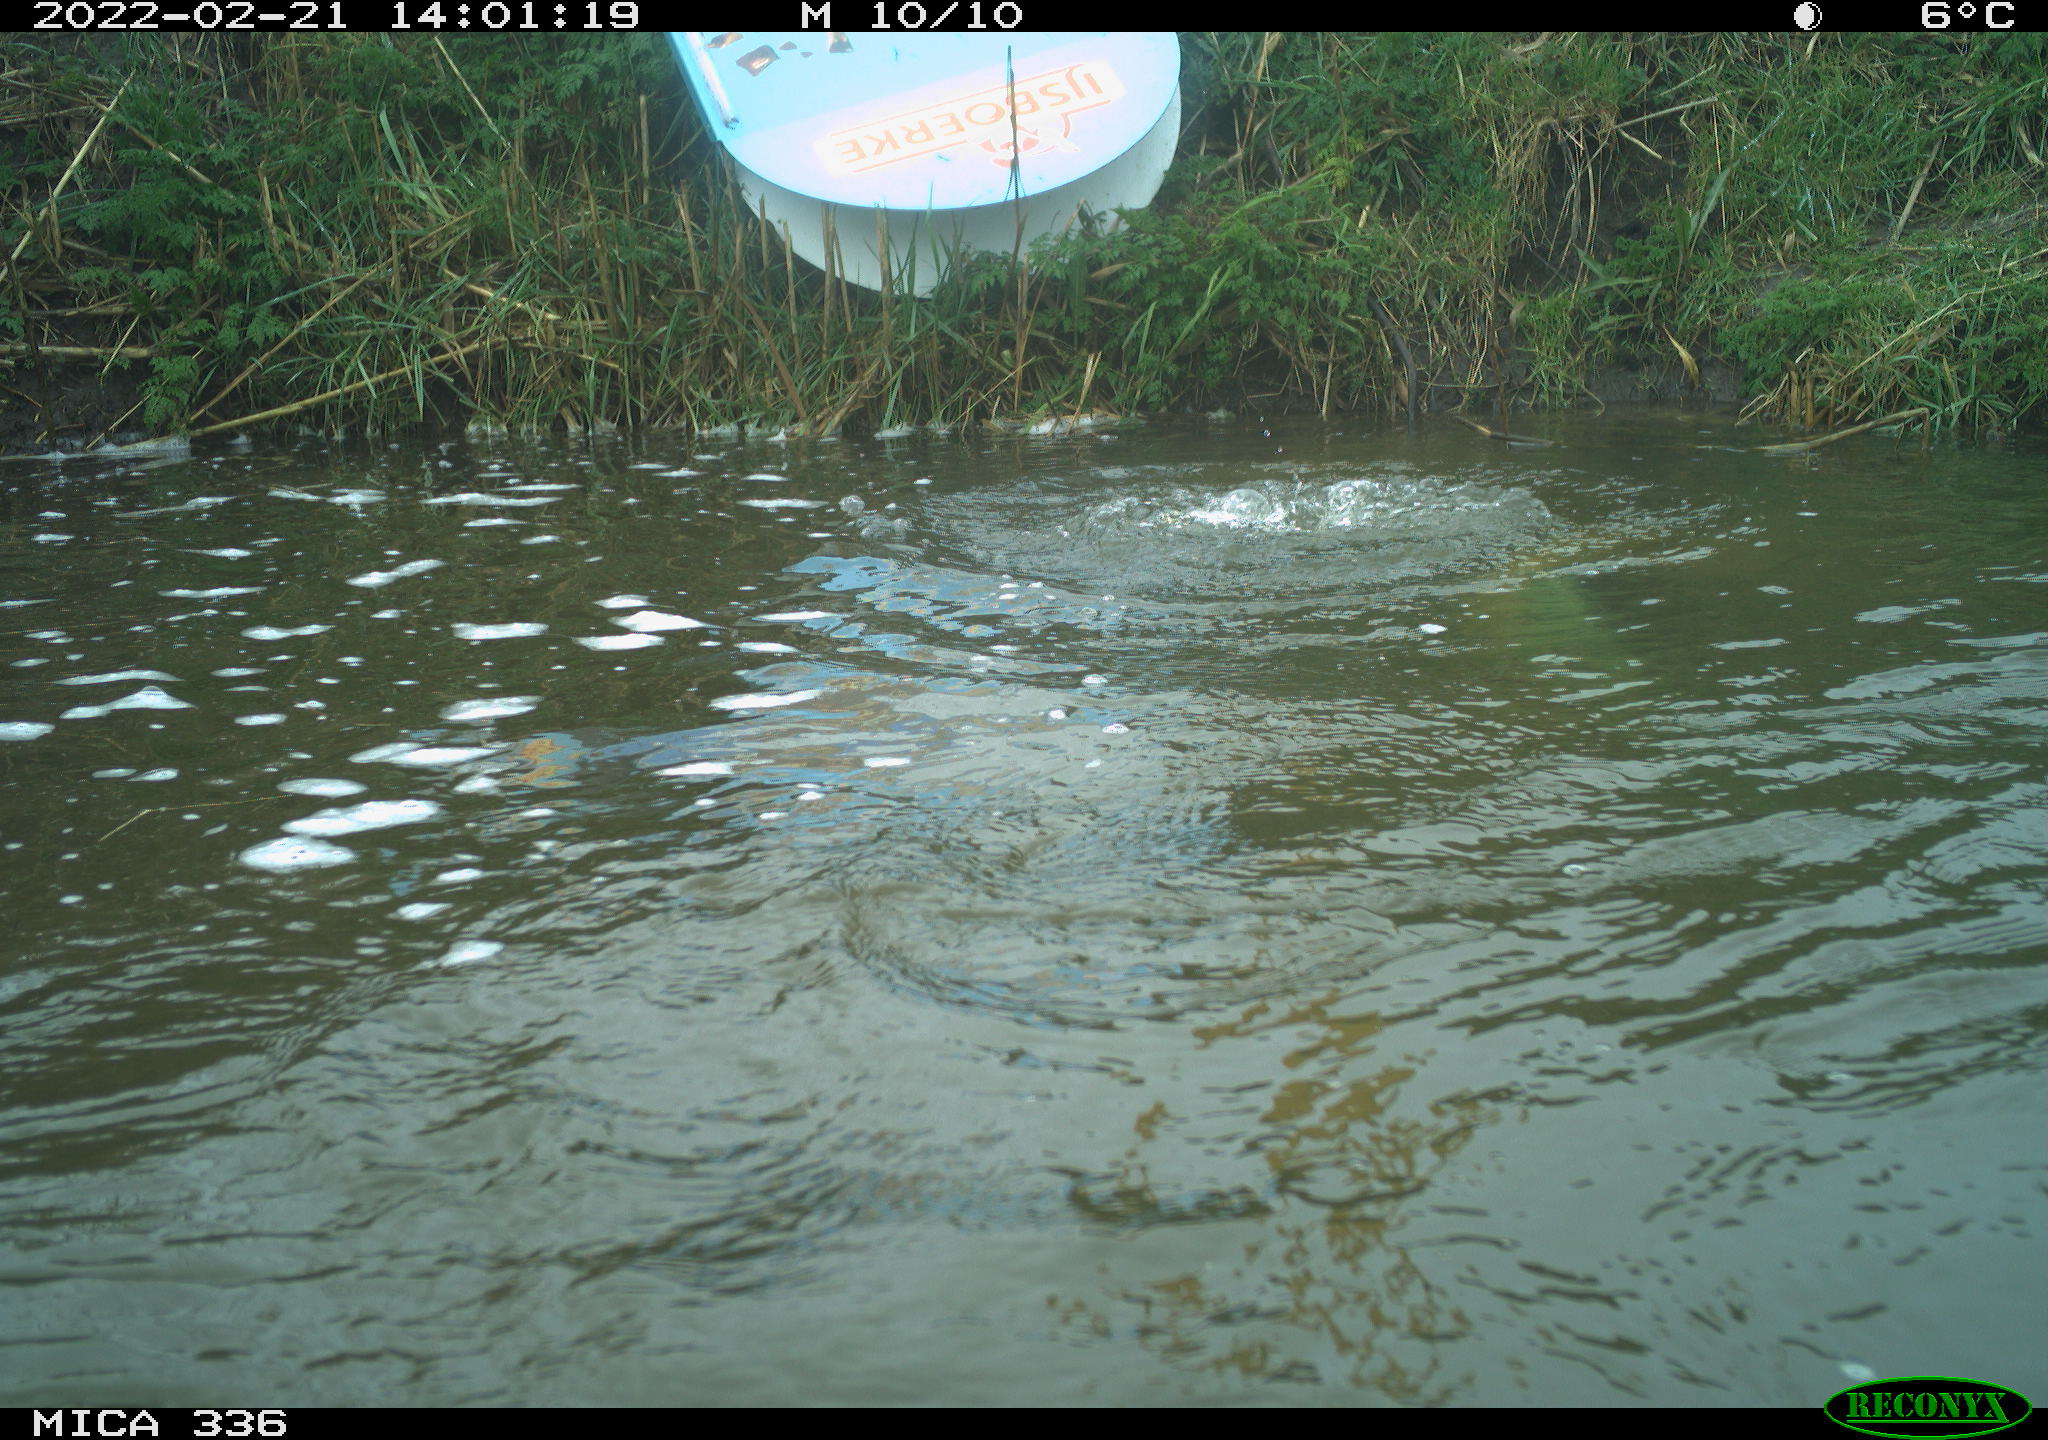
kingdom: Animalia
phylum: Chordata
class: Aves
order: Suliformes
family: Phalacrocoracidae
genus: Phalacrocorax
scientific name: Phalacrocorax carbo
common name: Great cormorant
